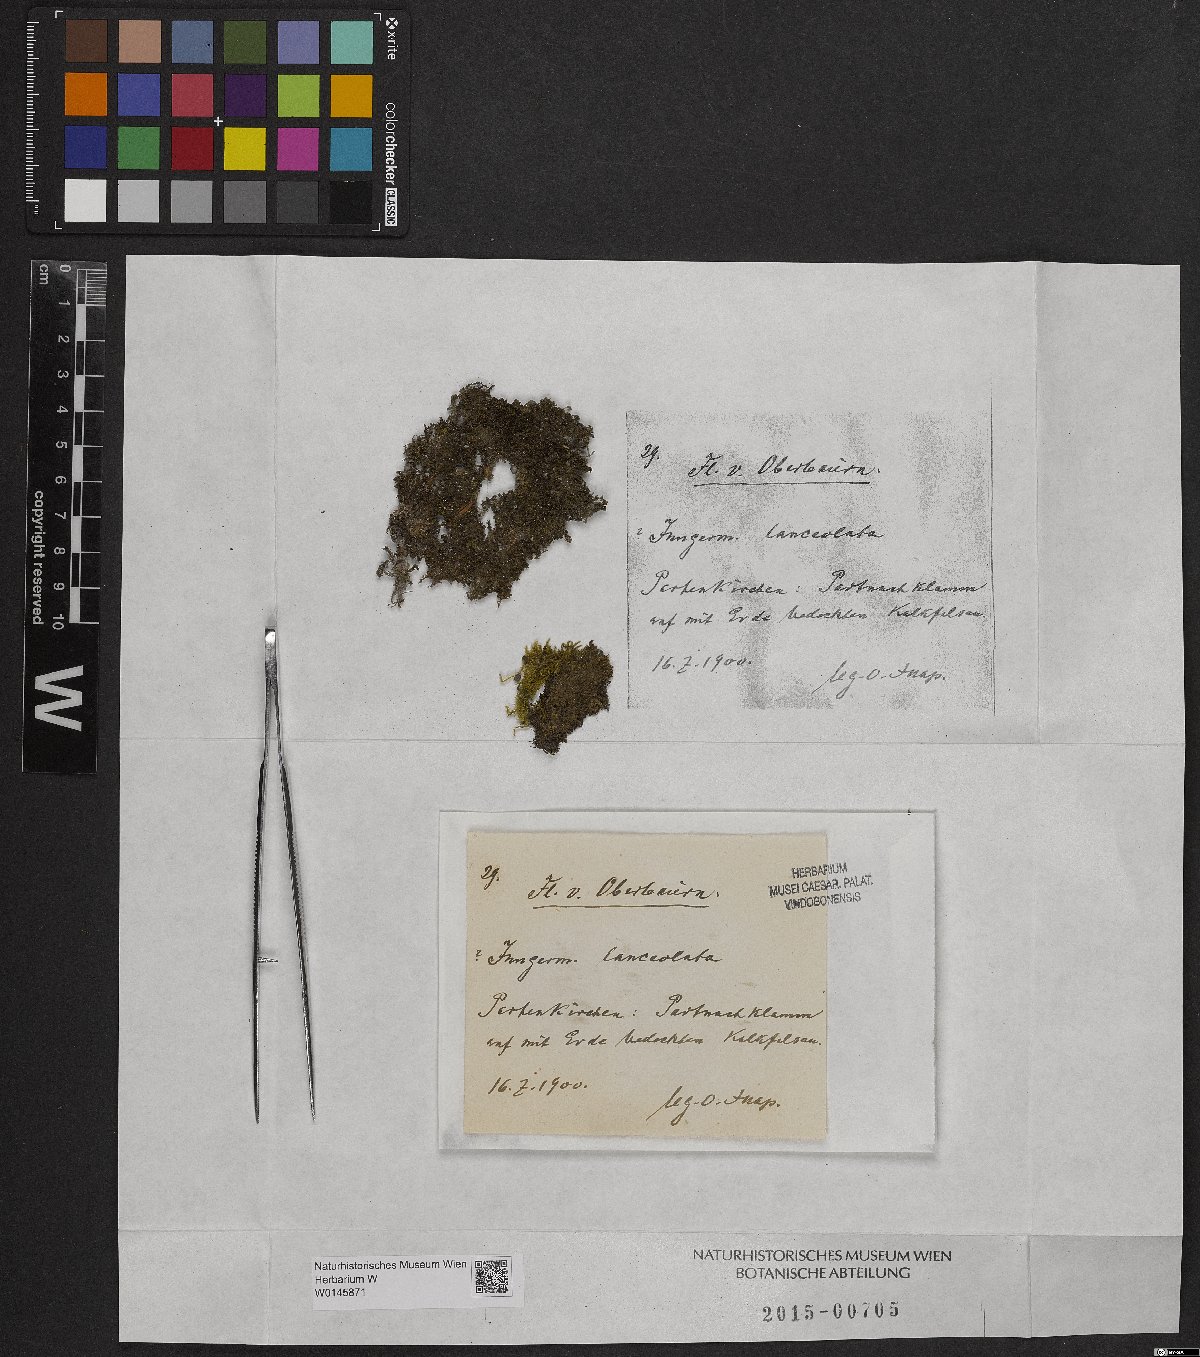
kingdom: Plantae
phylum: Marchantiophyta
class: Jungermanniopsida
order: Jungermanniales
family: Jungermanniaceae
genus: Jungermannia
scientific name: Jungermannia atrovirens
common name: Dark-green flapwort
